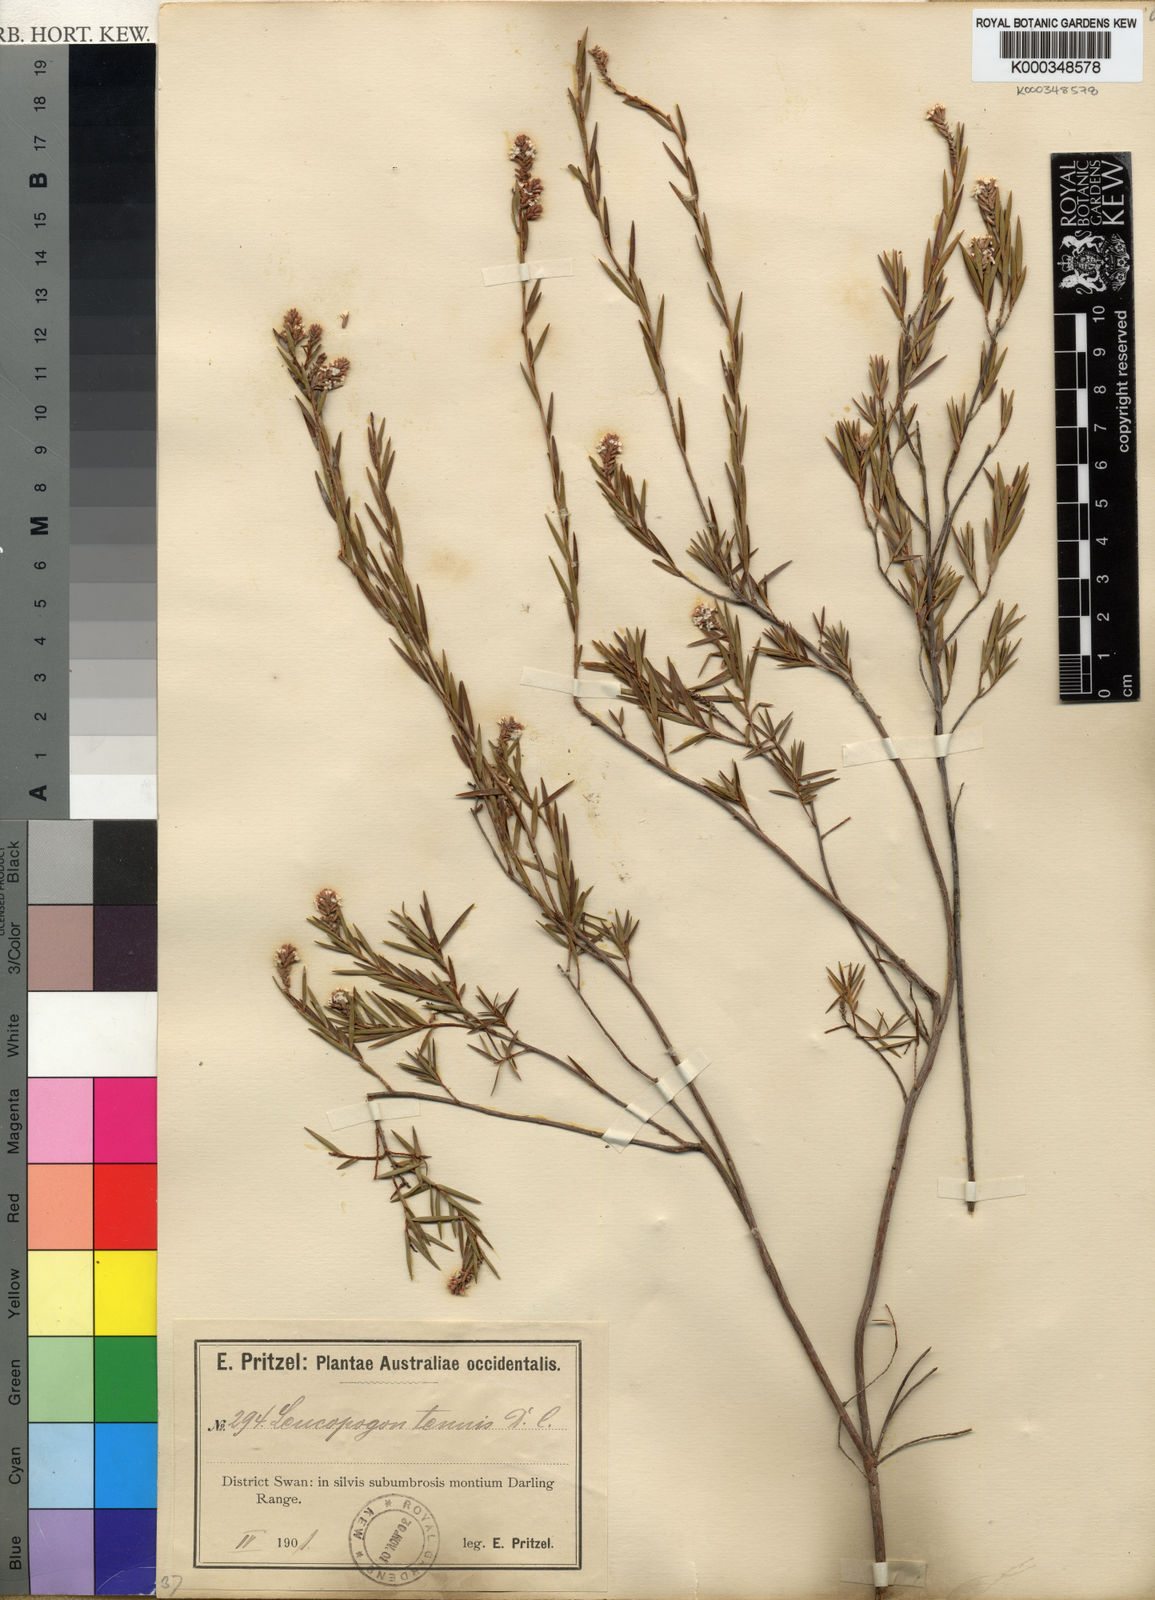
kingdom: Plantae
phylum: Tracheophyta
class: Magnoliopsida
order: Ericales
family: Ericaceae
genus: Leucopogon
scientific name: Leucopogon tenuis
